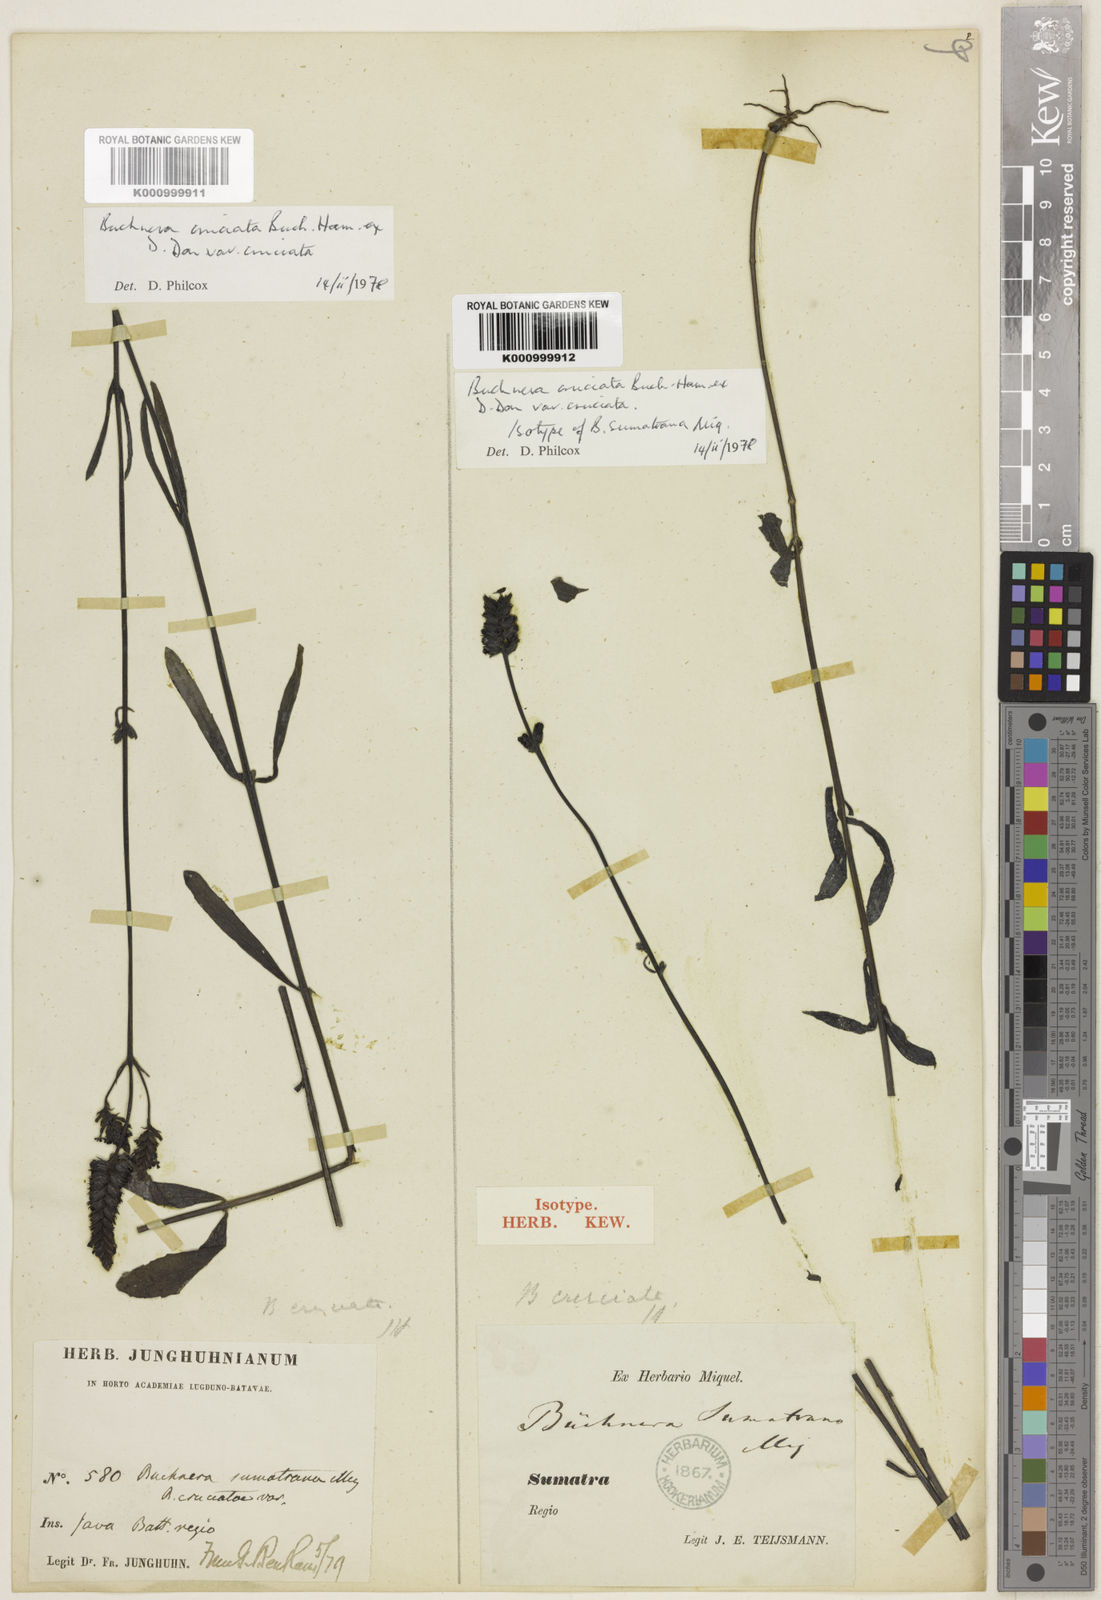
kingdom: Plantae
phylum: Tracheophyta
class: Magnoliopsida
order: Lamiales
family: Orobanchaceae
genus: Buchnera
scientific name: Buchnera cruciata
